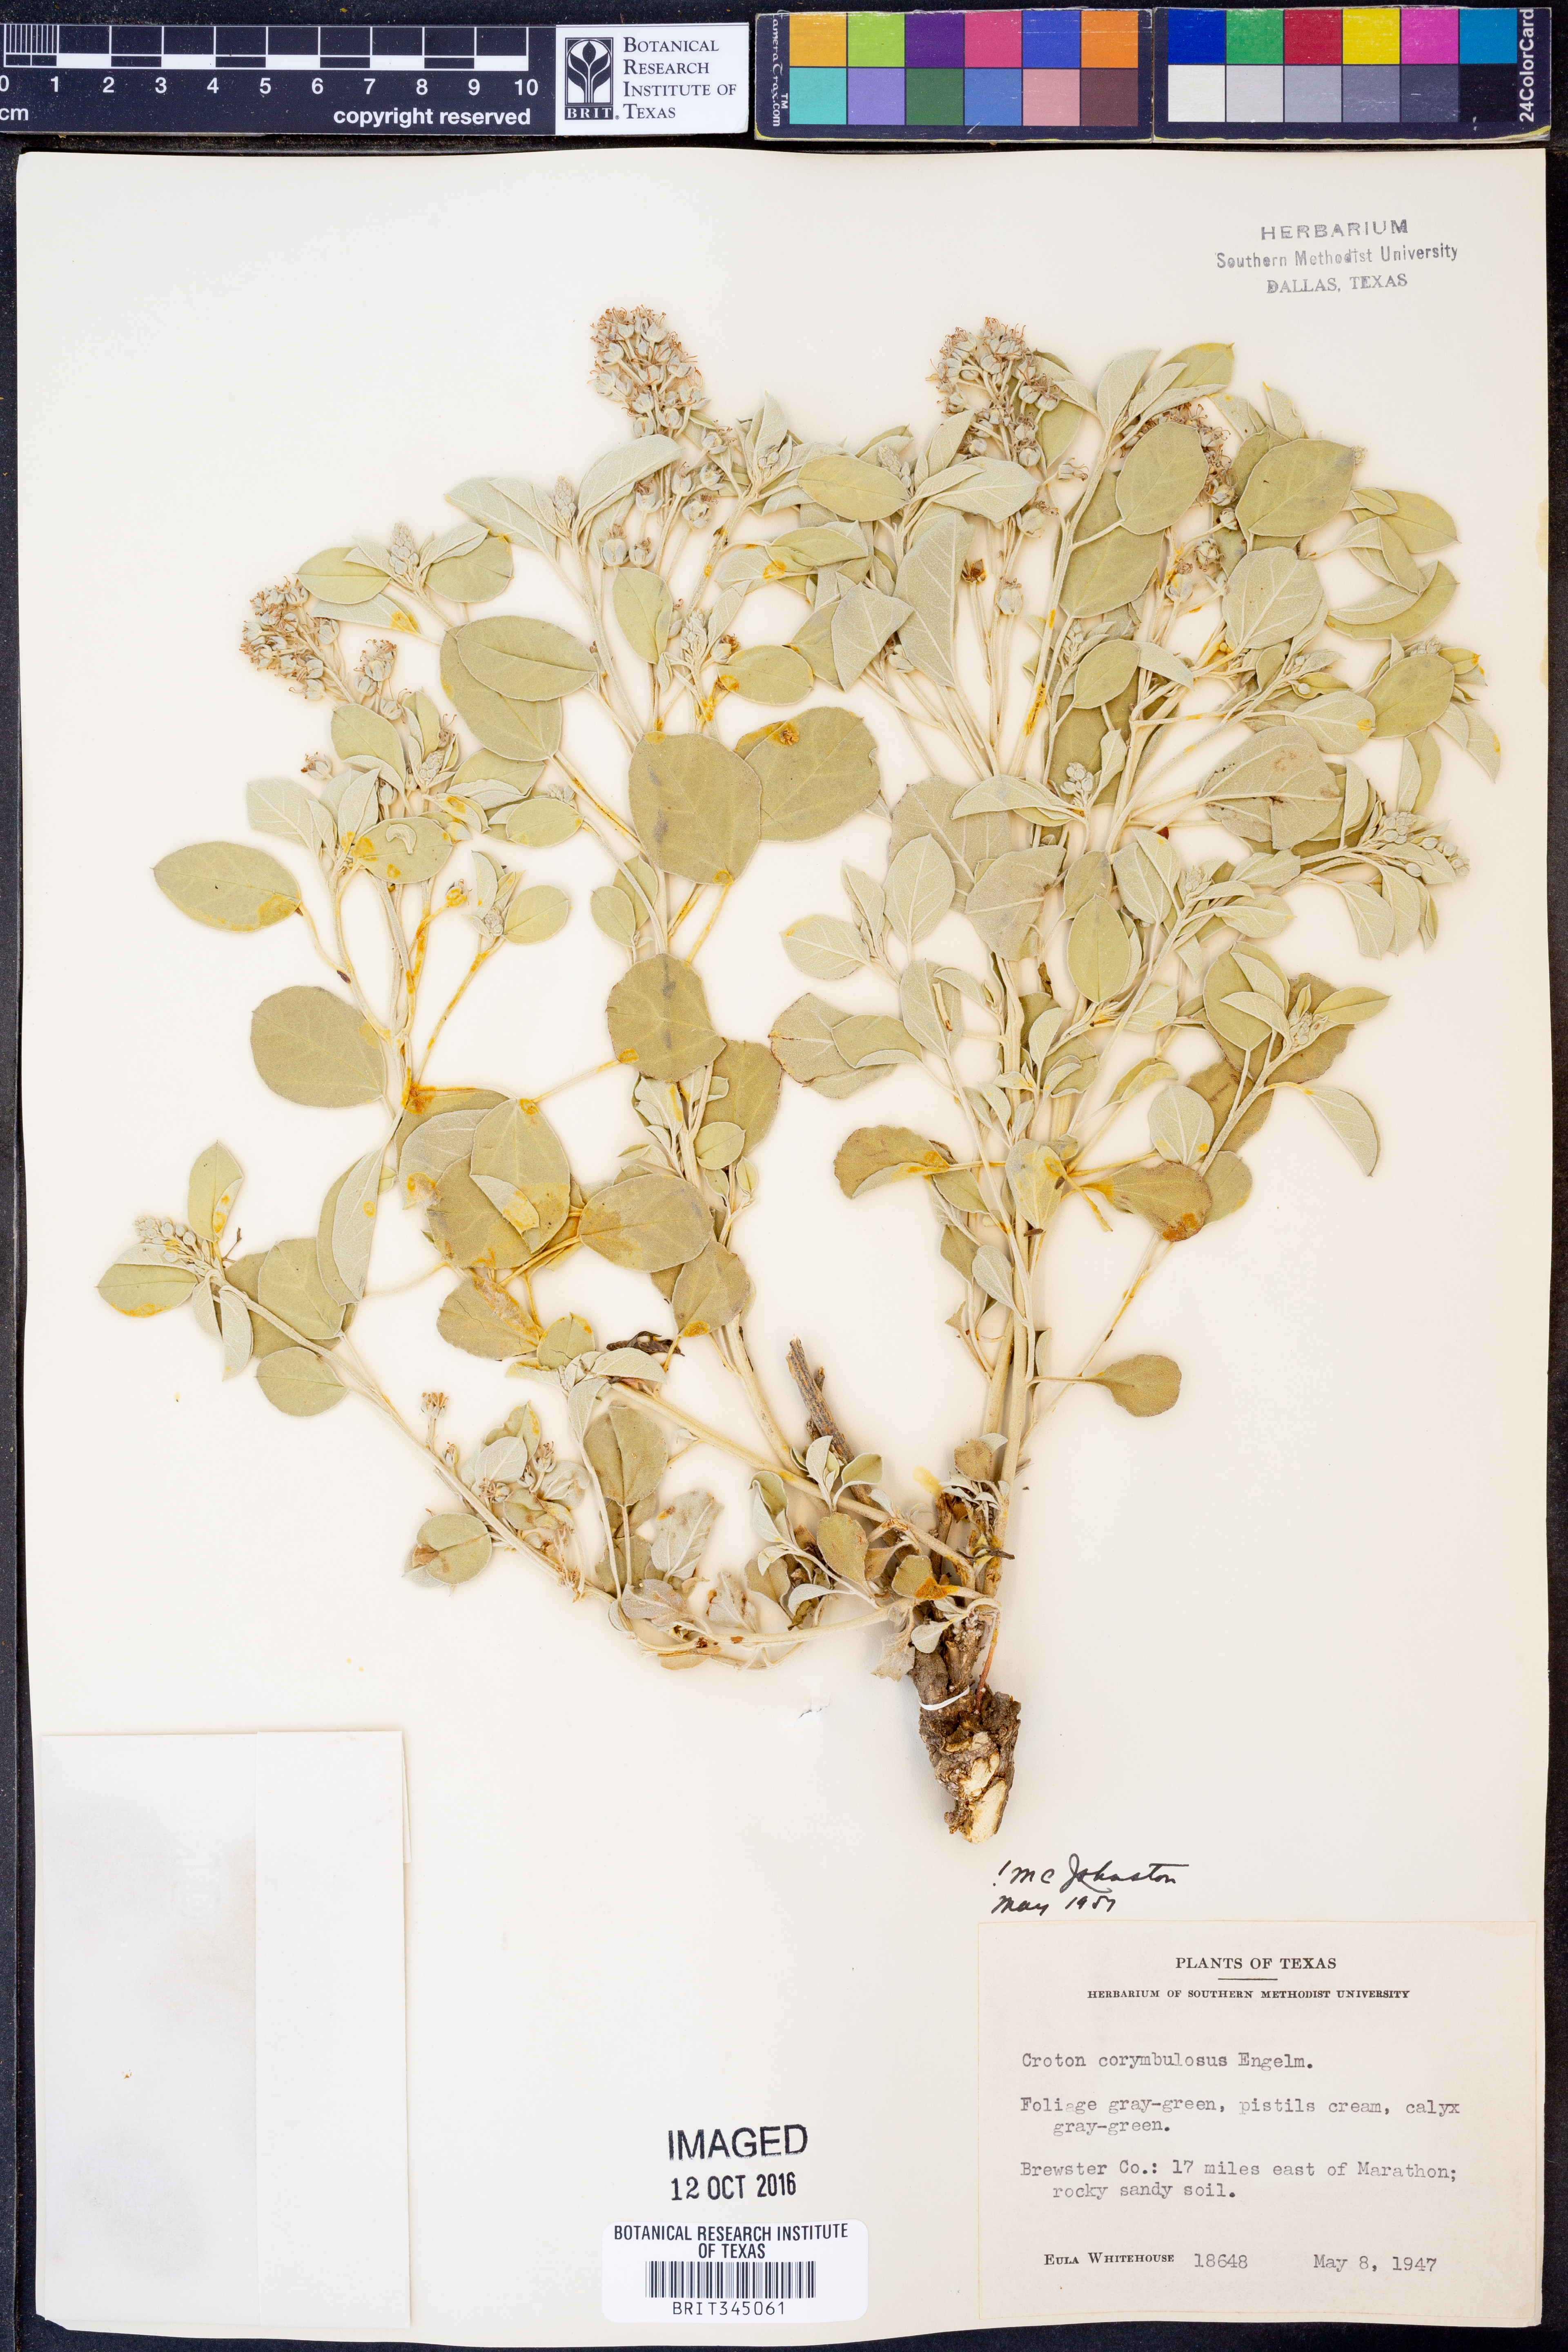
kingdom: Plantae
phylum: Tracheophyta
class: Magnoliopsida
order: Malpighiales
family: Euphorbiaceae
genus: Croton
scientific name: Croton pottsii
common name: Leatherweed
